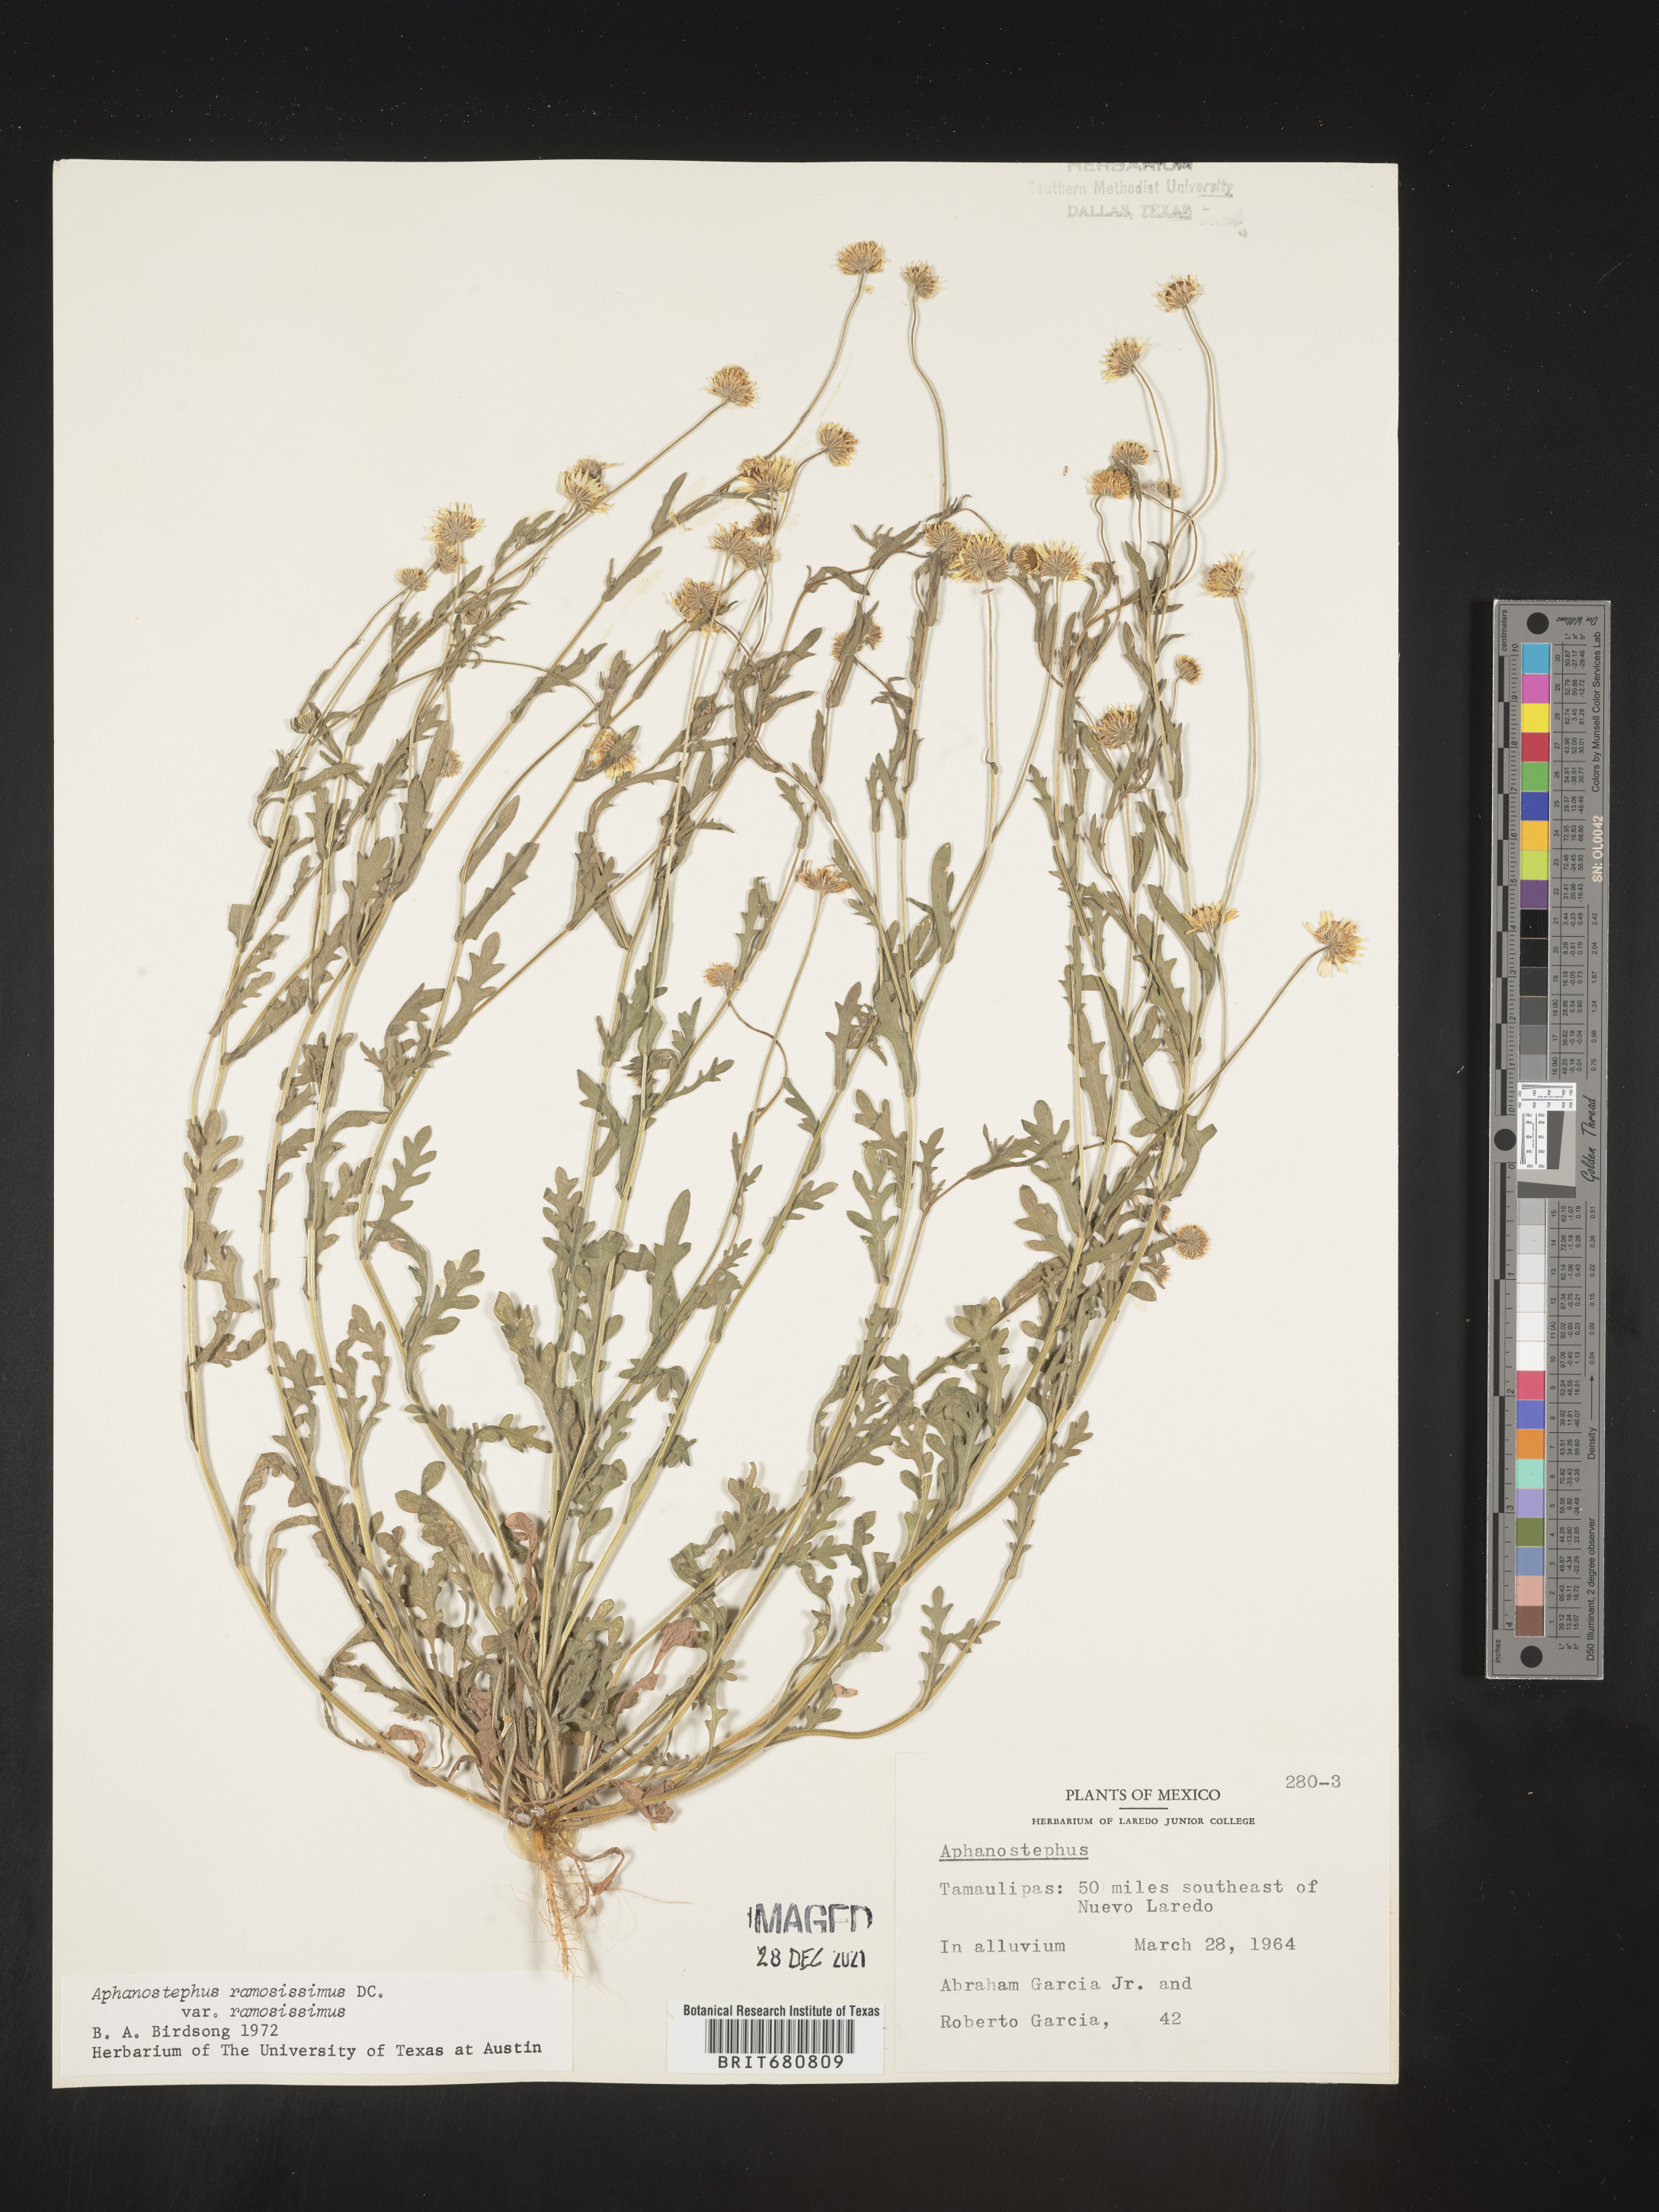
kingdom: Plantae
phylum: Tracheophyta
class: Magnoliopsida
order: Asterales
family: Asteraceae
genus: Aphanostephus
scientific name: Aphanostephus ramosissimus
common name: Plains lazy daisy
